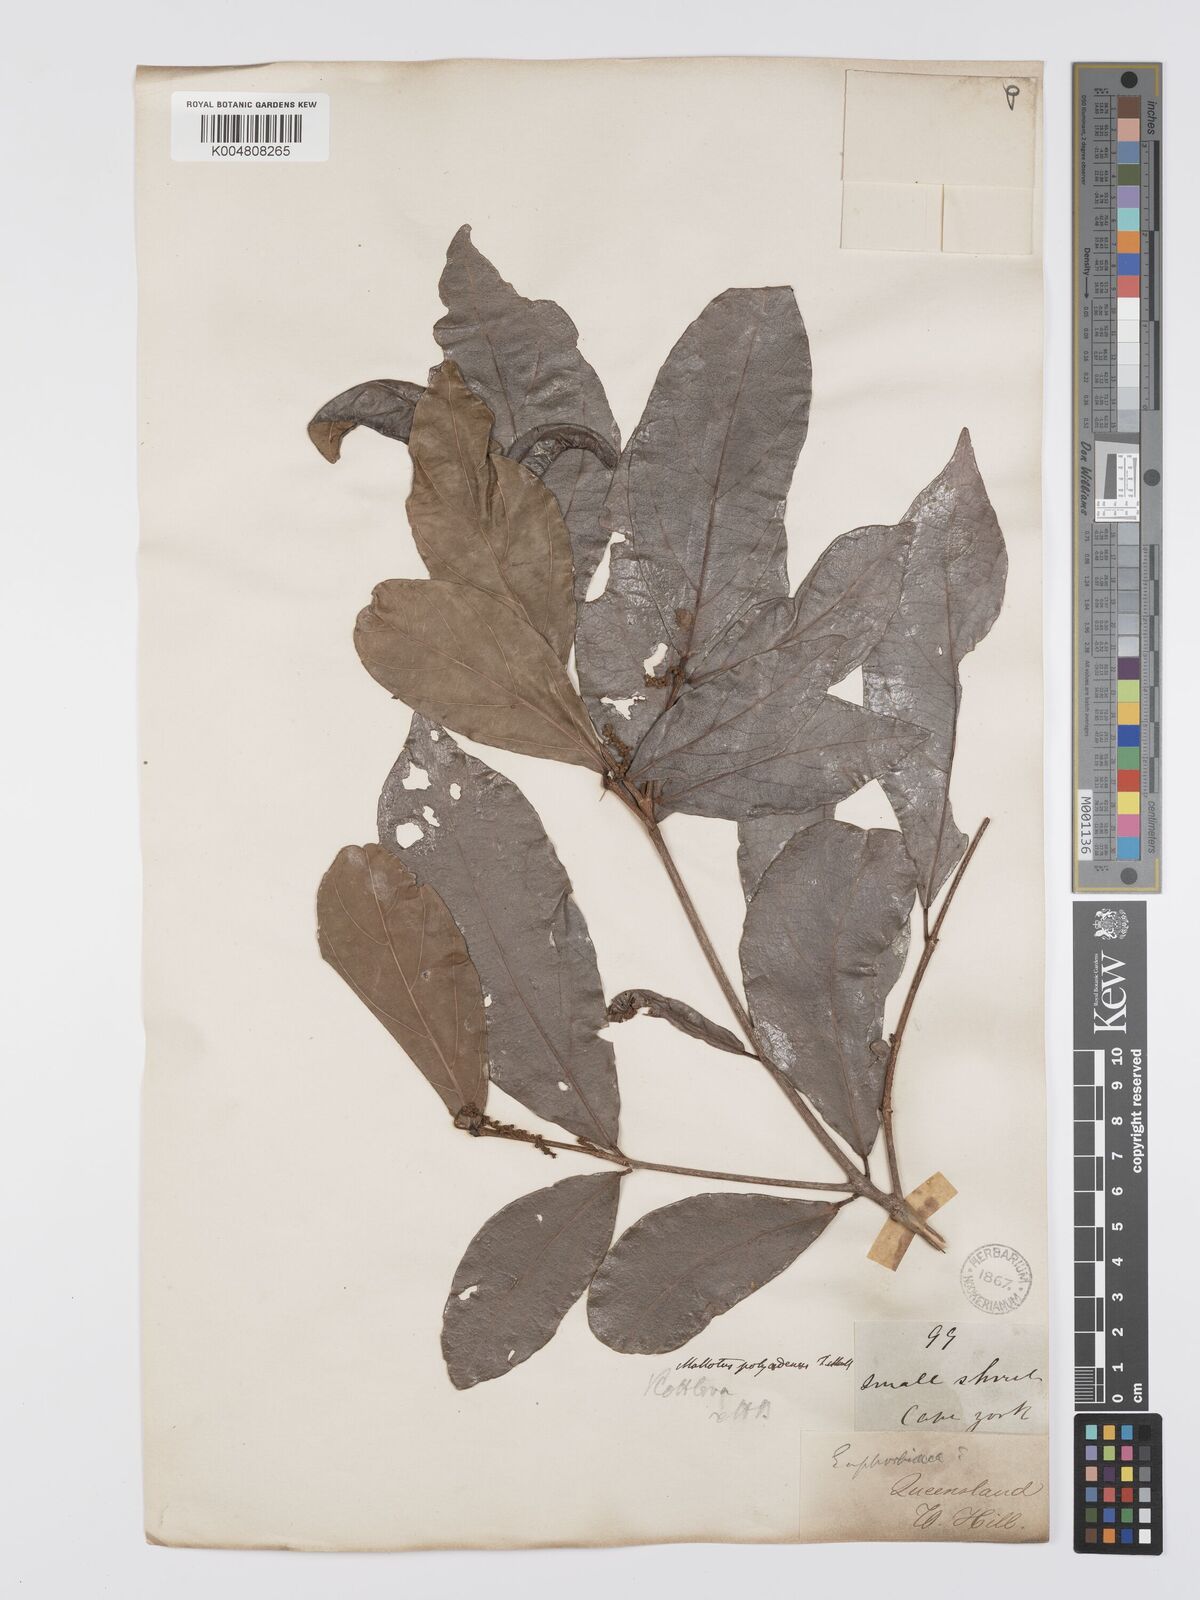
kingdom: Plantae
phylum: Tracheophyta
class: Magnoliopsida
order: Malpighiales
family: Euphorbiaceae
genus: Mallotus
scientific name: Mallotus polyadenos
